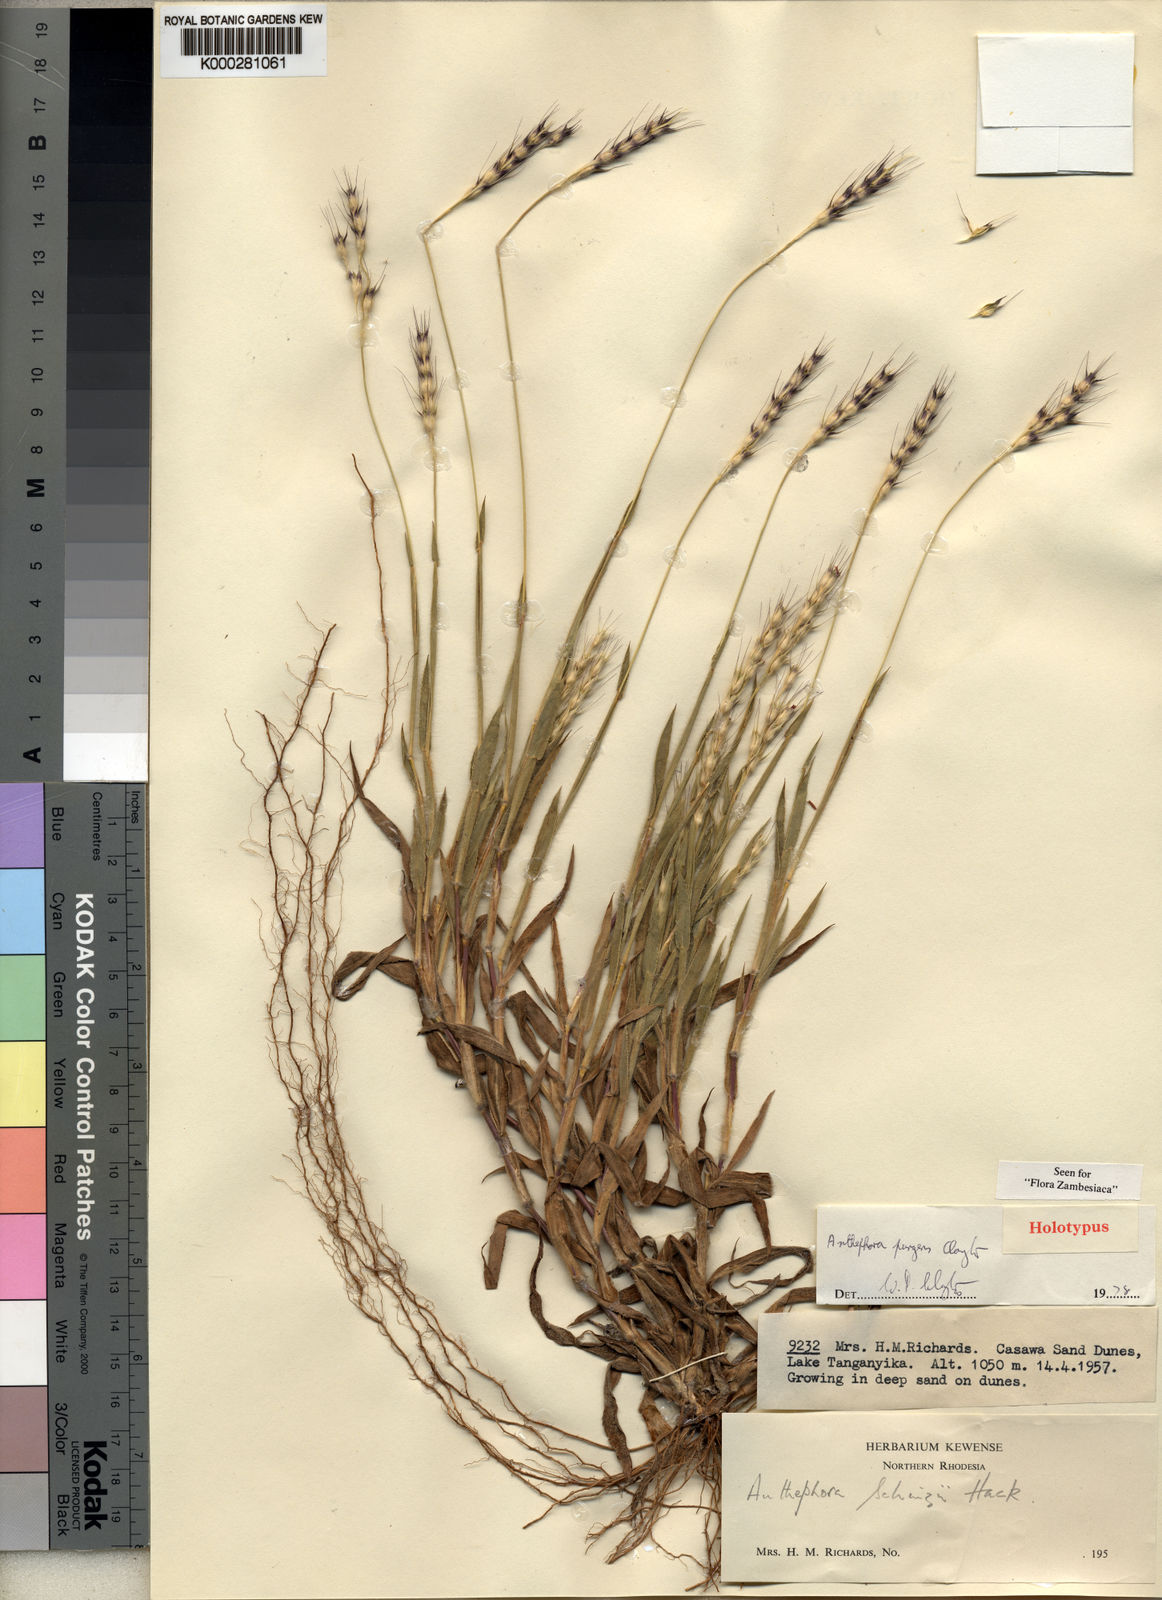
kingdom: Plantae
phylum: Tracheophyta
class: Liliopsida
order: Poales
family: Poaceae
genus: Anthephora
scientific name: Anthephora pungens
